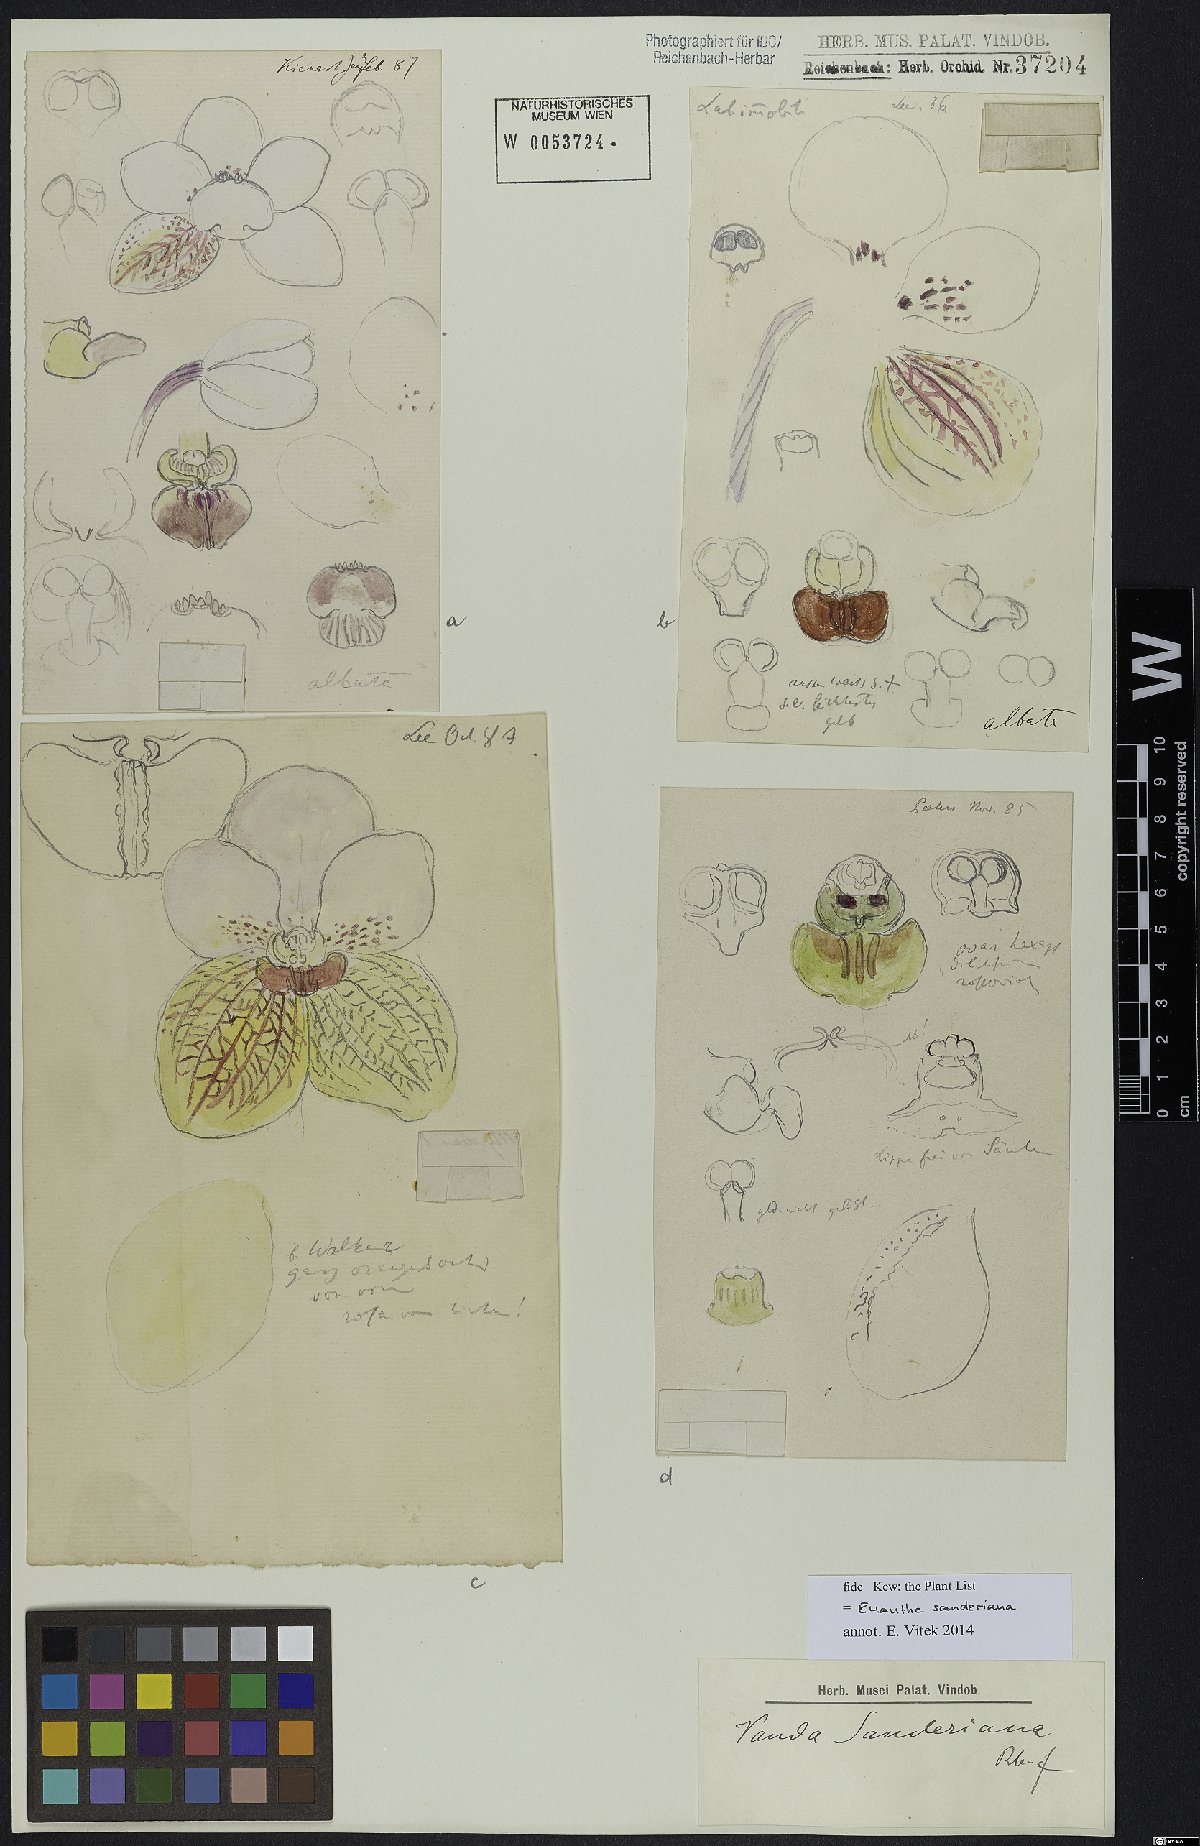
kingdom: Plantae
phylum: Tracheophyta
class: Liliopsida
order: Asparagales
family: Orchidaceae
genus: Vanda
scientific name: Vanda sanderiana
